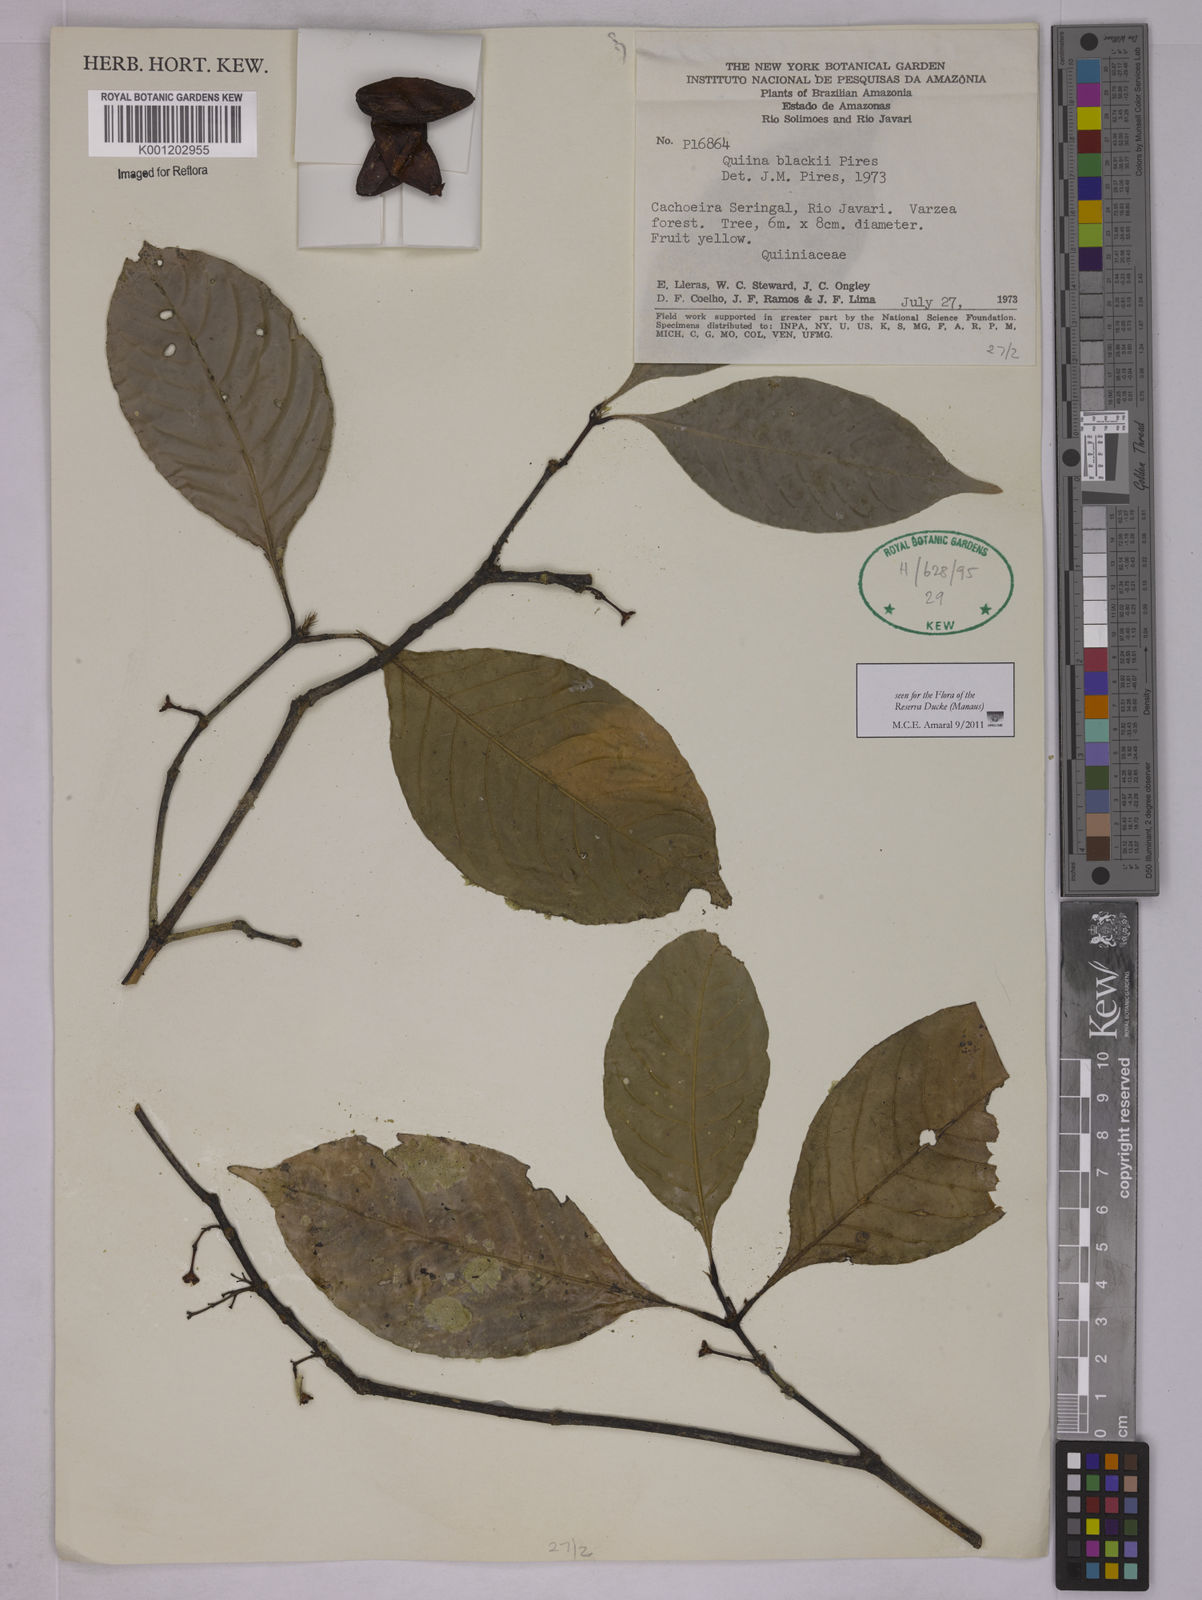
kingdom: Plantae
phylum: Tracheophyta
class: Magnoliopsida
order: Malpighiales
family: Quiinaceae
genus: Quiina
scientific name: Quiina blackii
